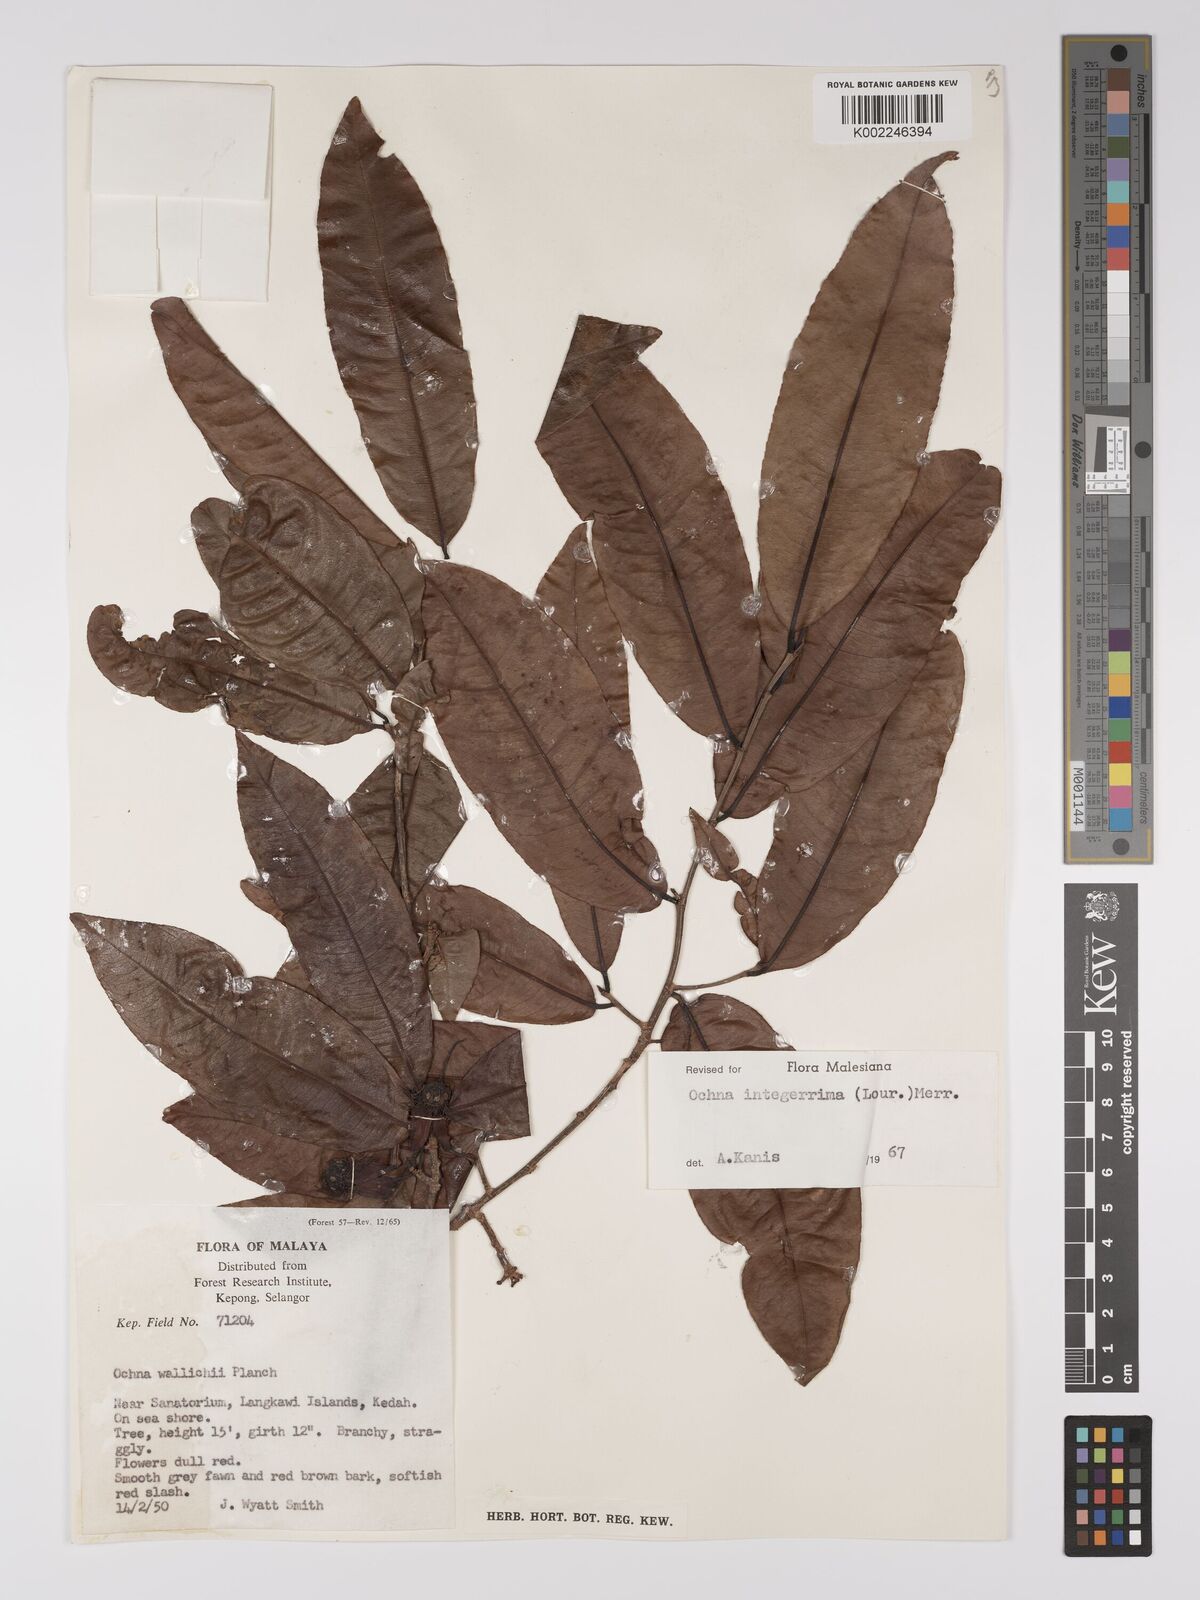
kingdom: Plantae
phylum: Tracheophyta
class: Magnoliopsida
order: Malpighiales
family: Ochnaceae
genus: Ochna
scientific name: Ochna integerrima
